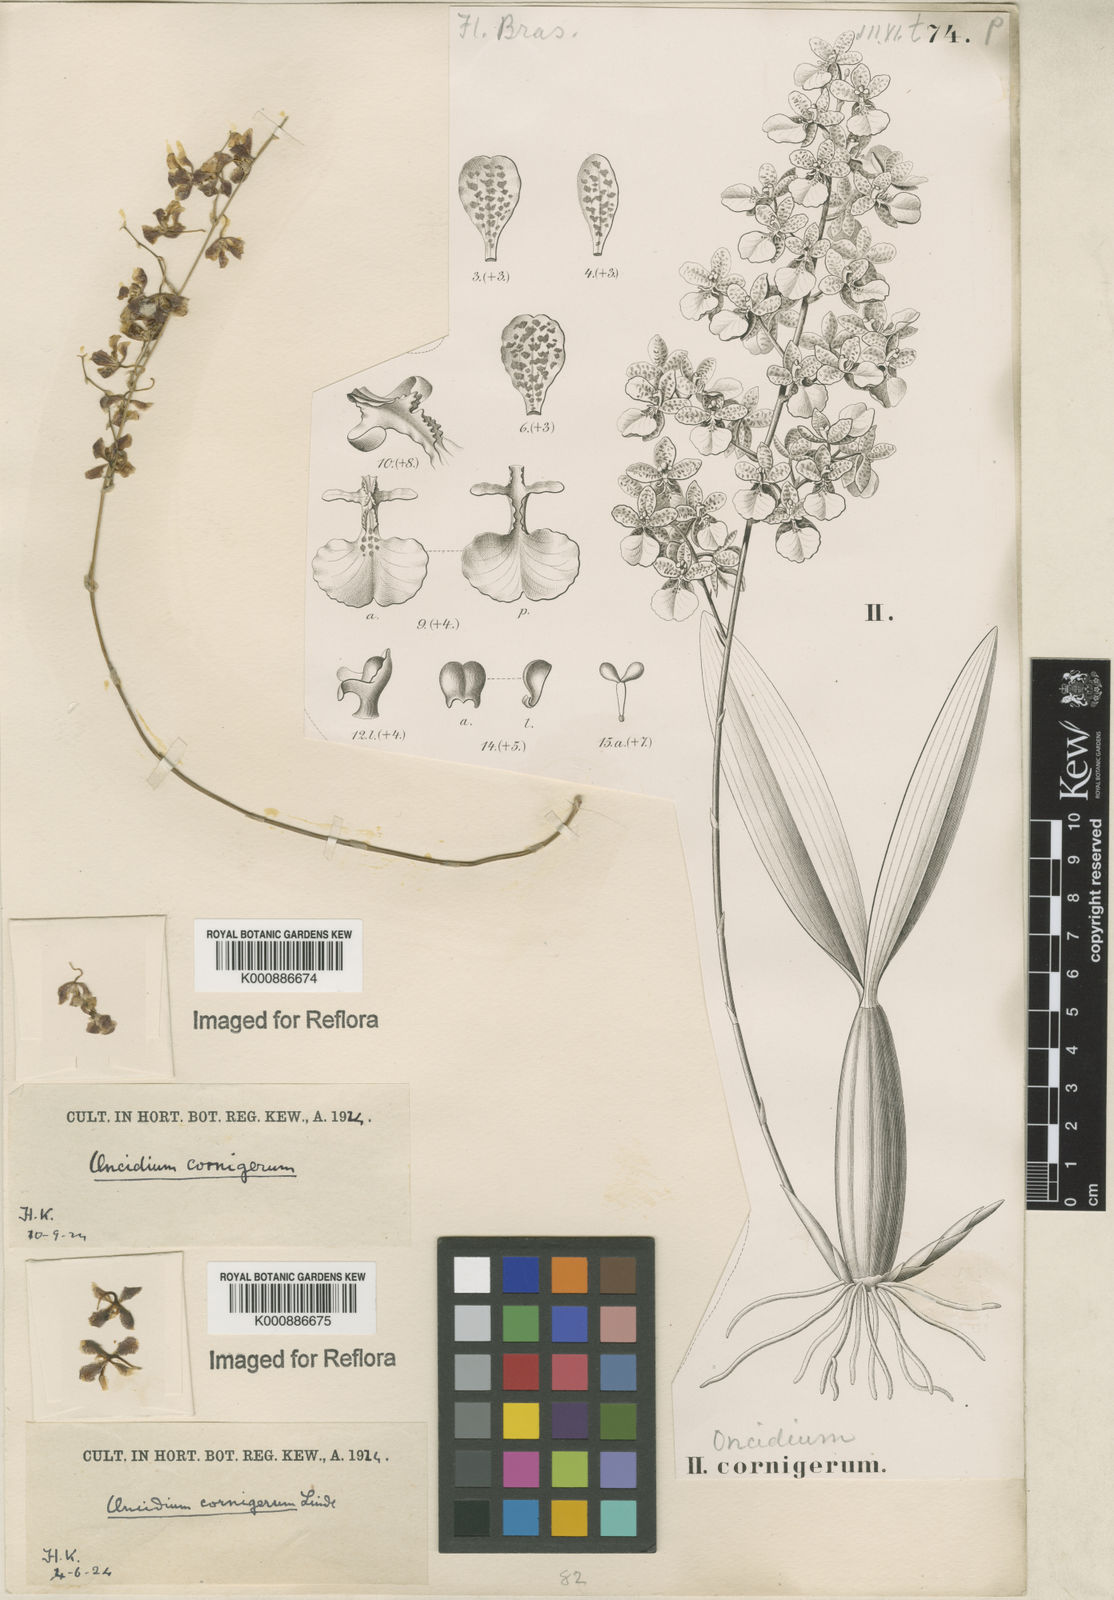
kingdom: Plantae
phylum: Tracheophyta
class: Liliopsida
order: Asparagales
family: Orchidaceae
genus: Gomesa
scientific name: Gomesa cornigera
